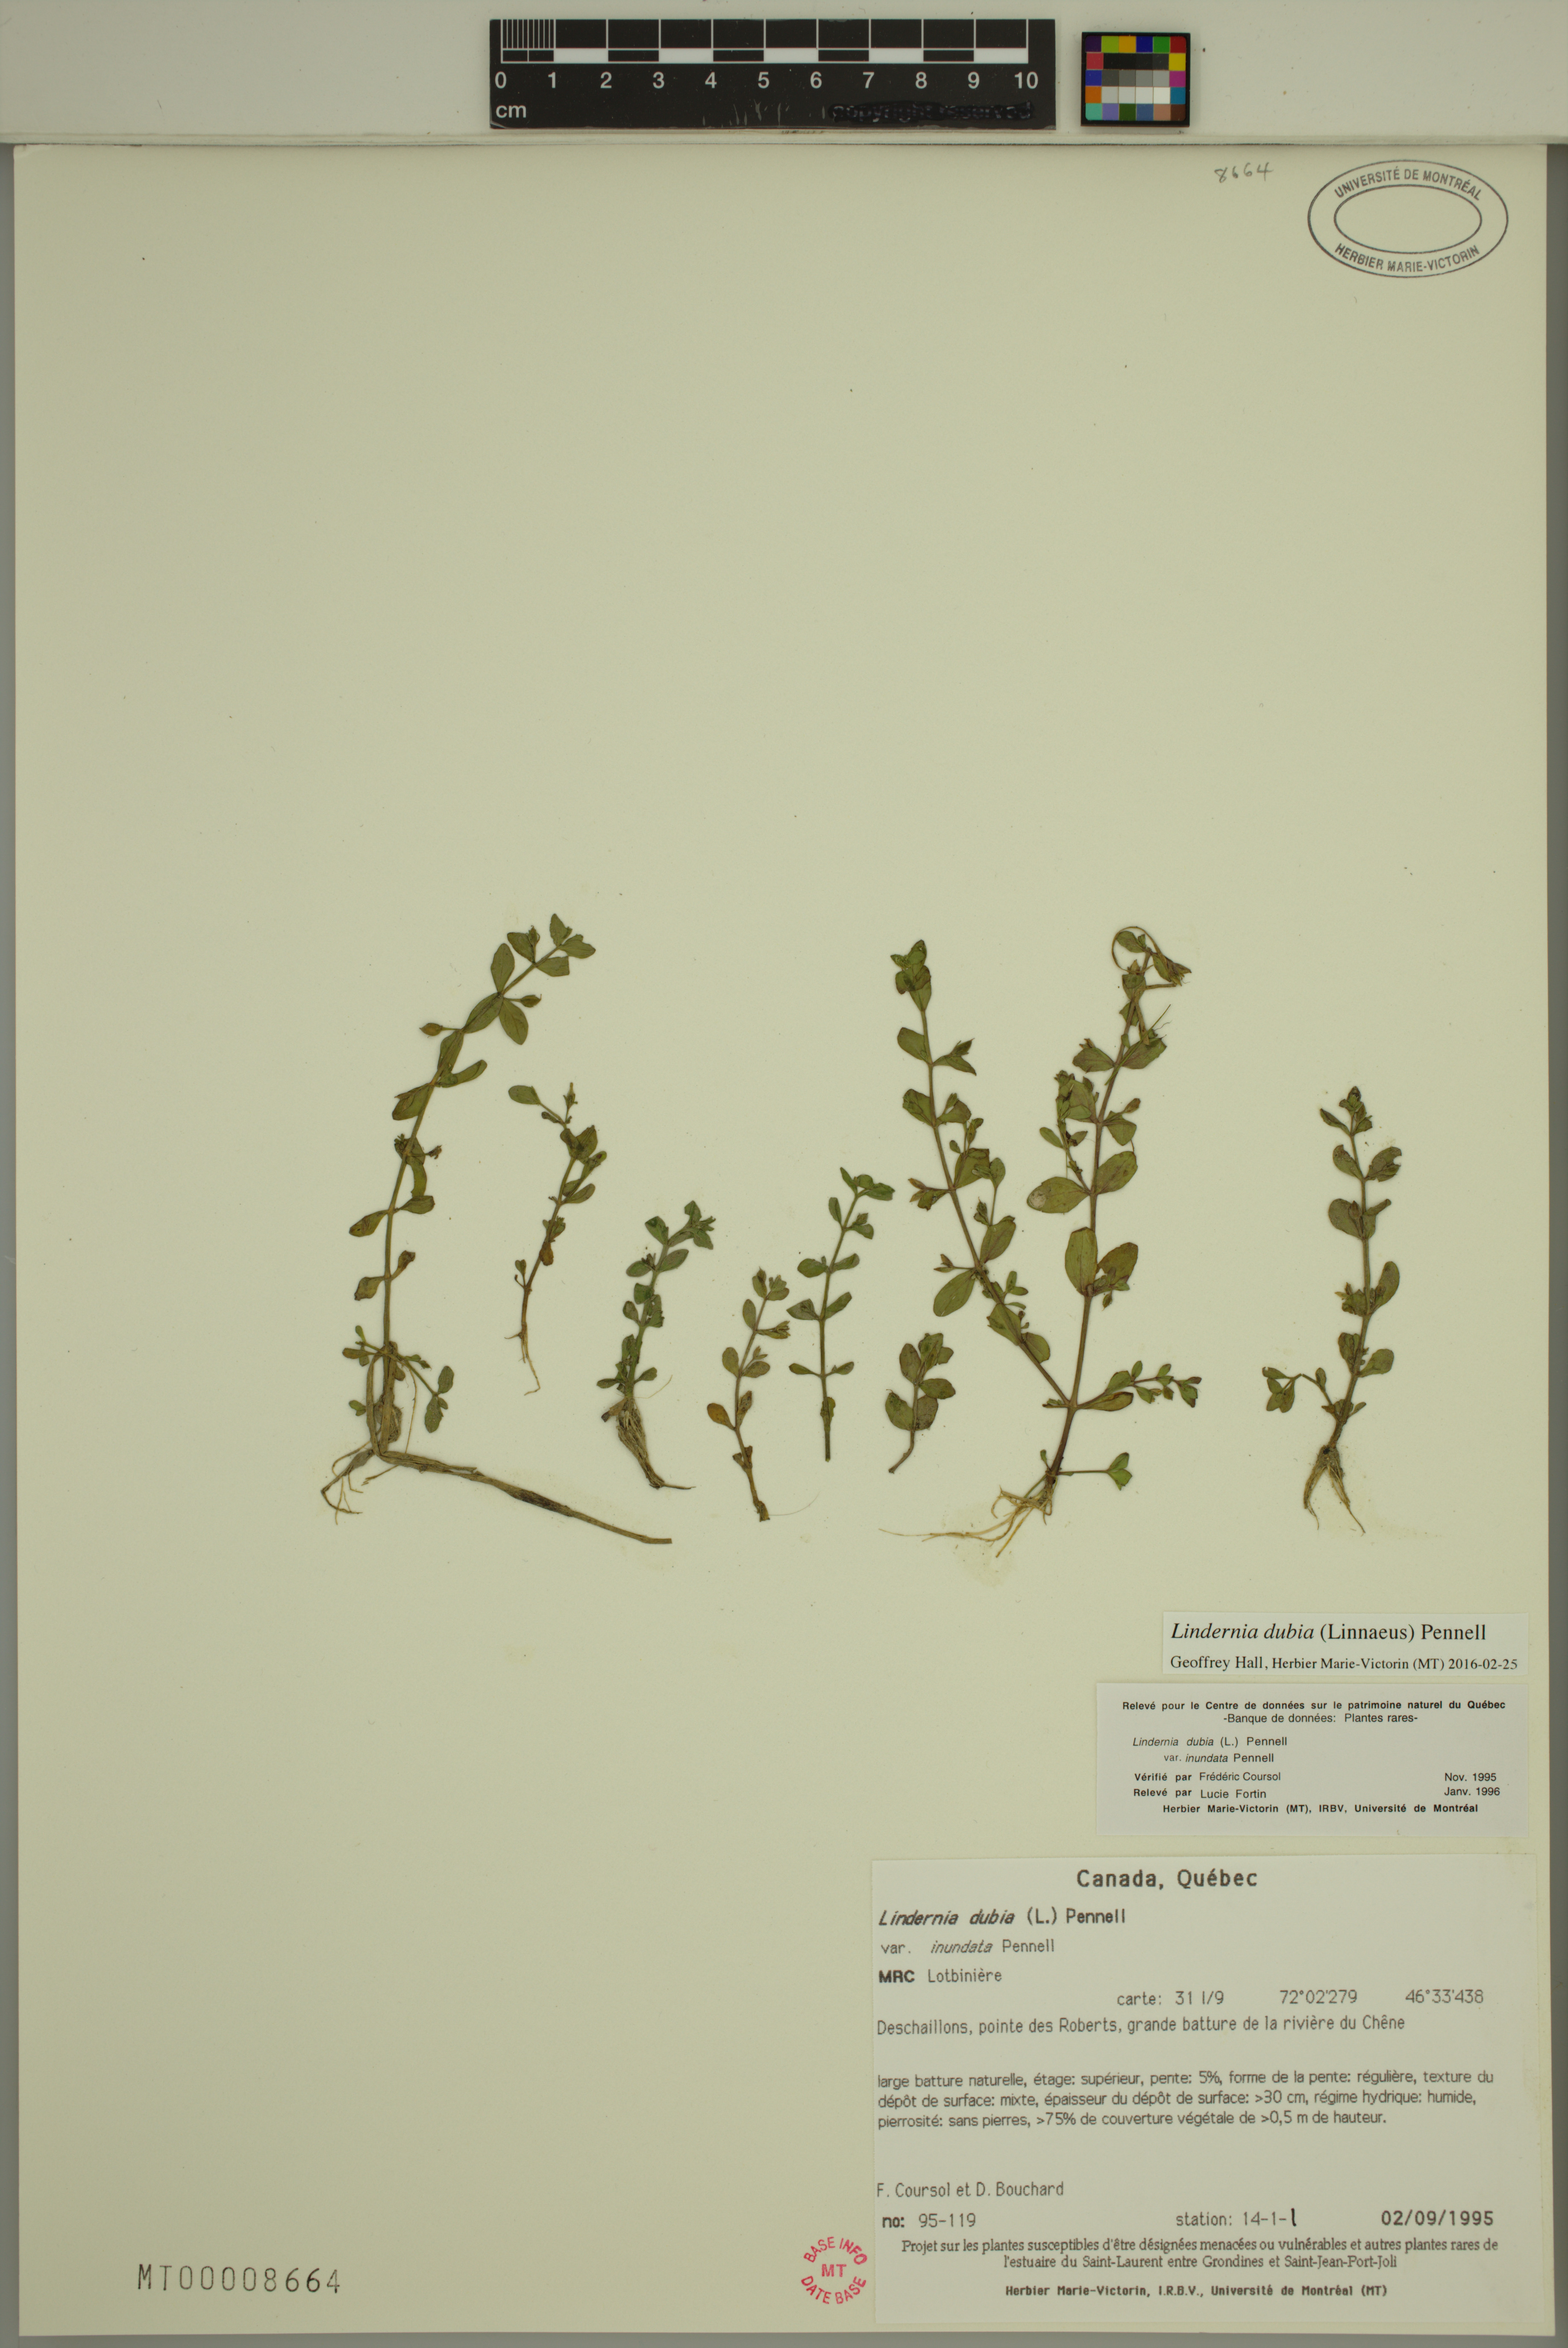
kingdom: Plantae
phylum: Tracheophyta
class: Magnoliopsida
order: Lamiales
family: Linderniaceae
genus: Lindernia
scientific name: Lindernia dubia
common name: Annual false pimpernel
